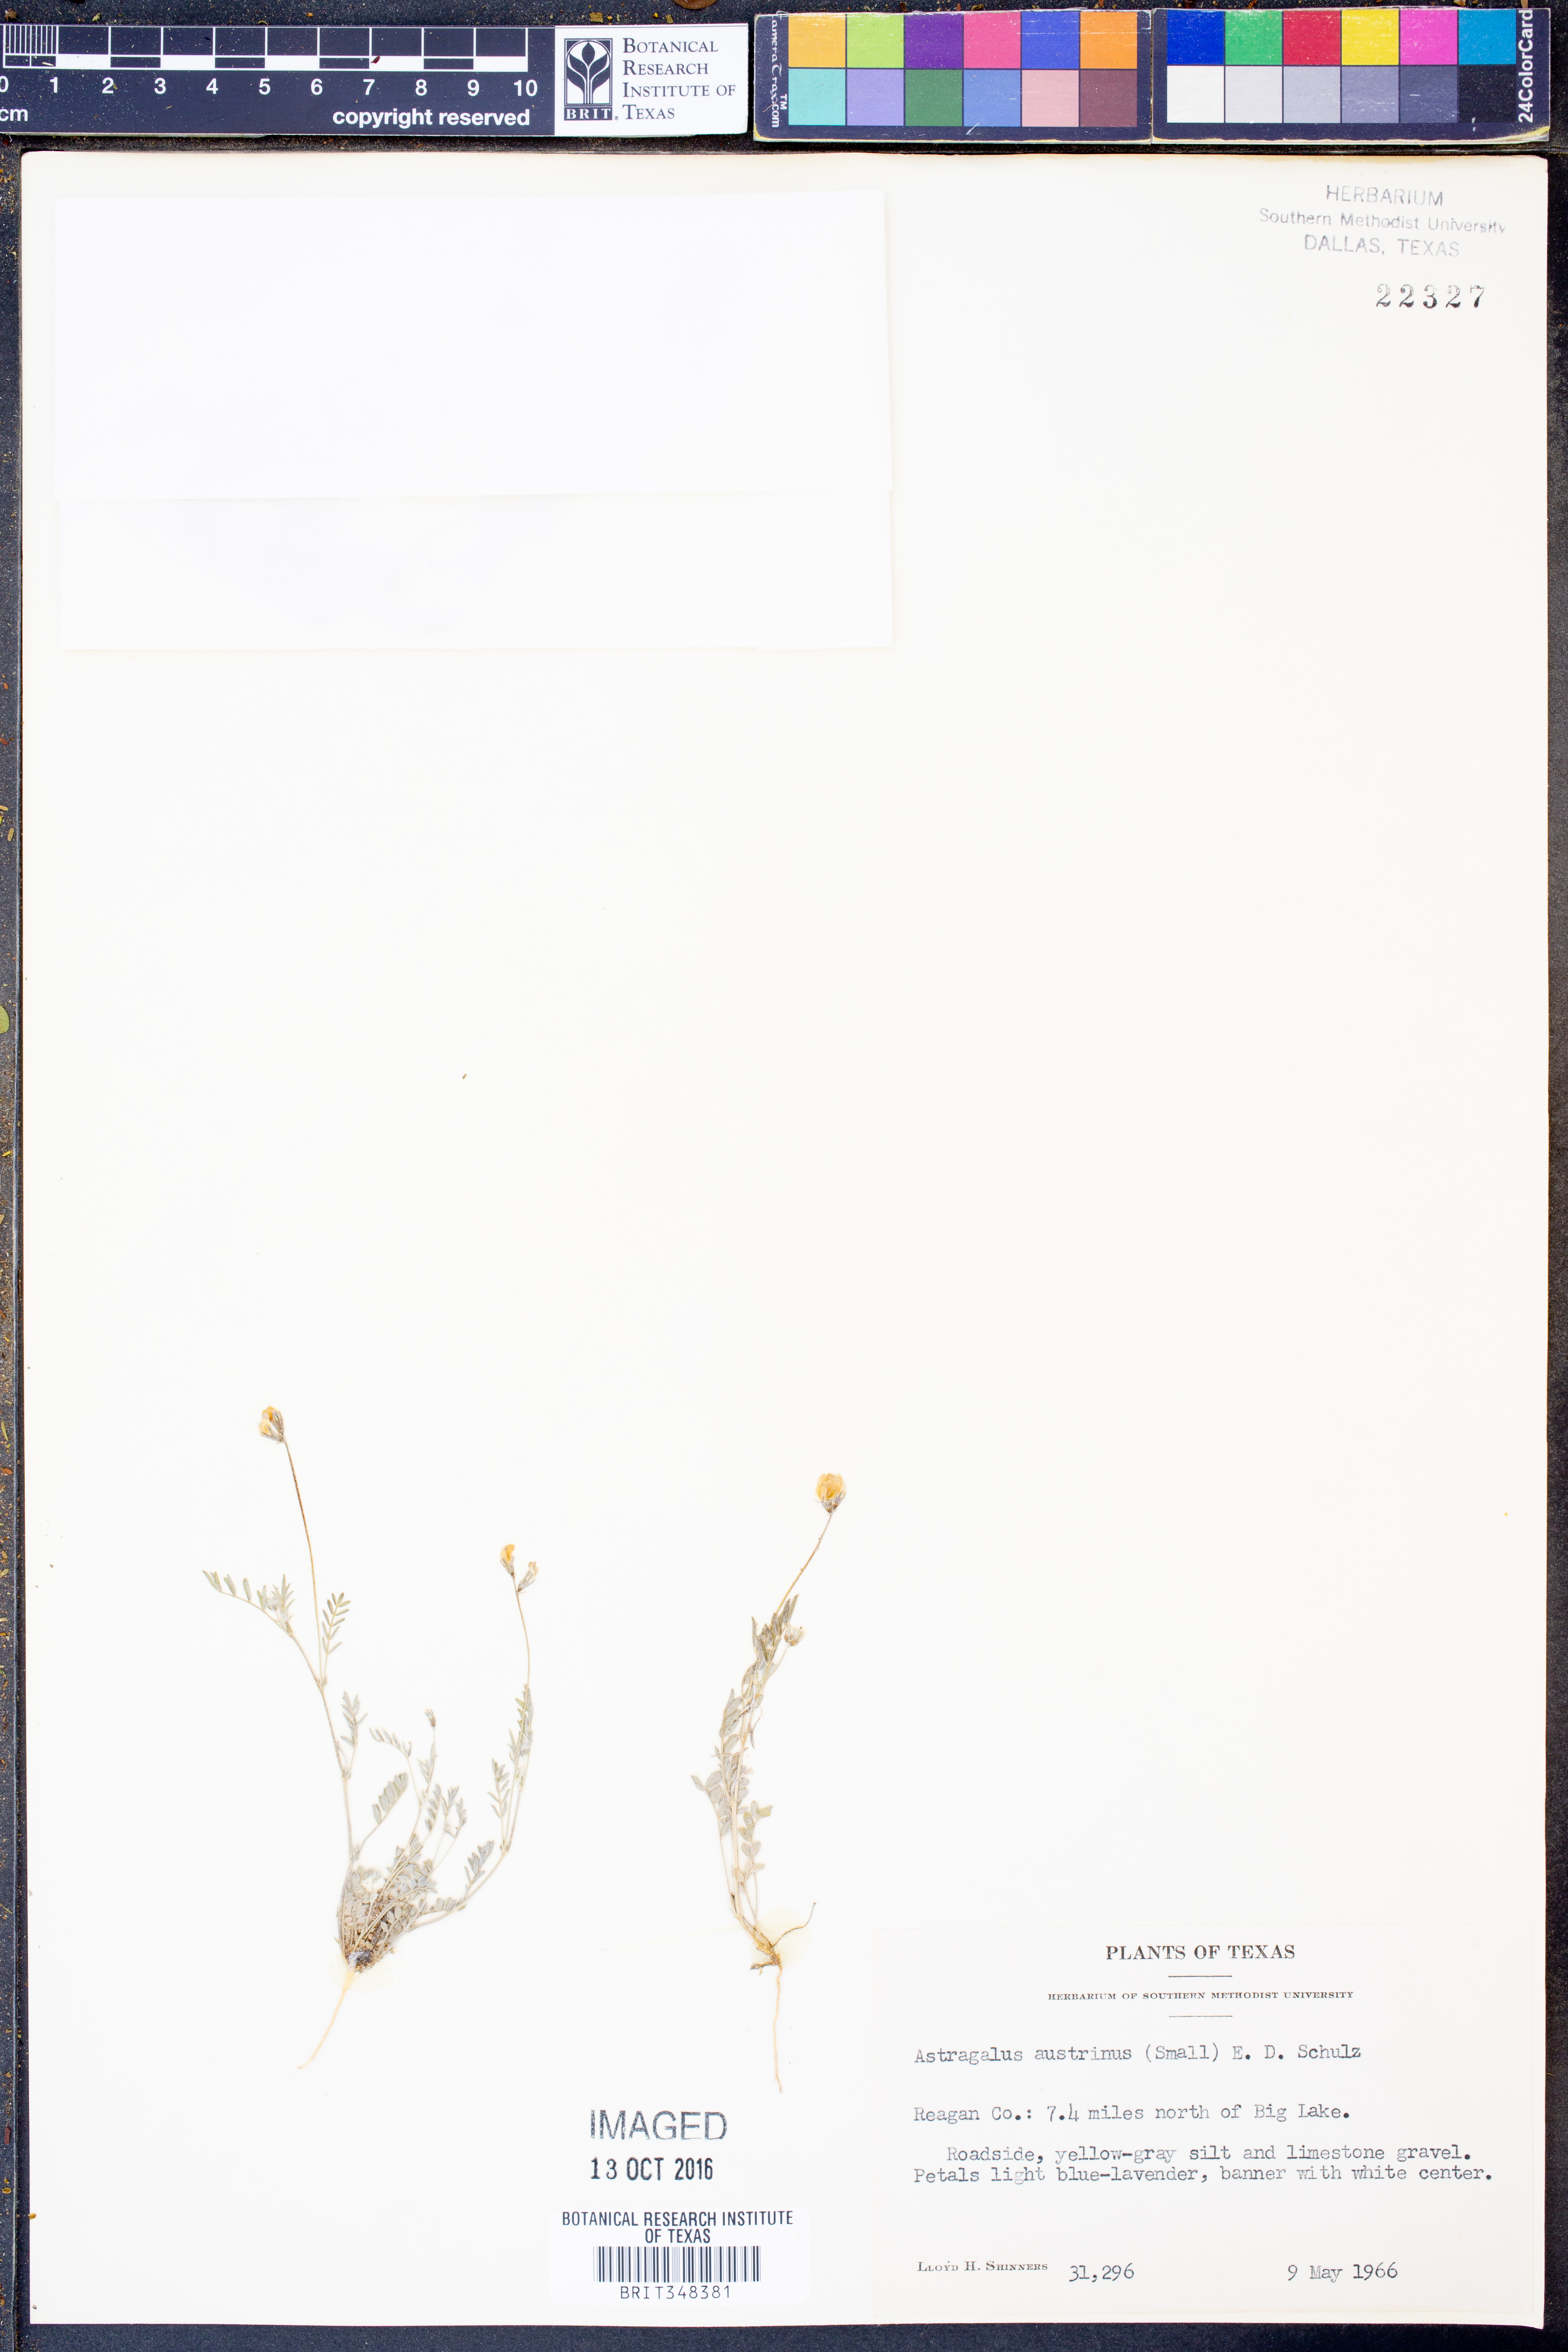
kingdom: Plantae
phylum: Tracheophyta
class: Magnoliopsida
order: Fabales
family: Fabaceae
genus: Astragalus
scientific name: Astragalus nuttallianus
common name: Smallflowered milkvetch
